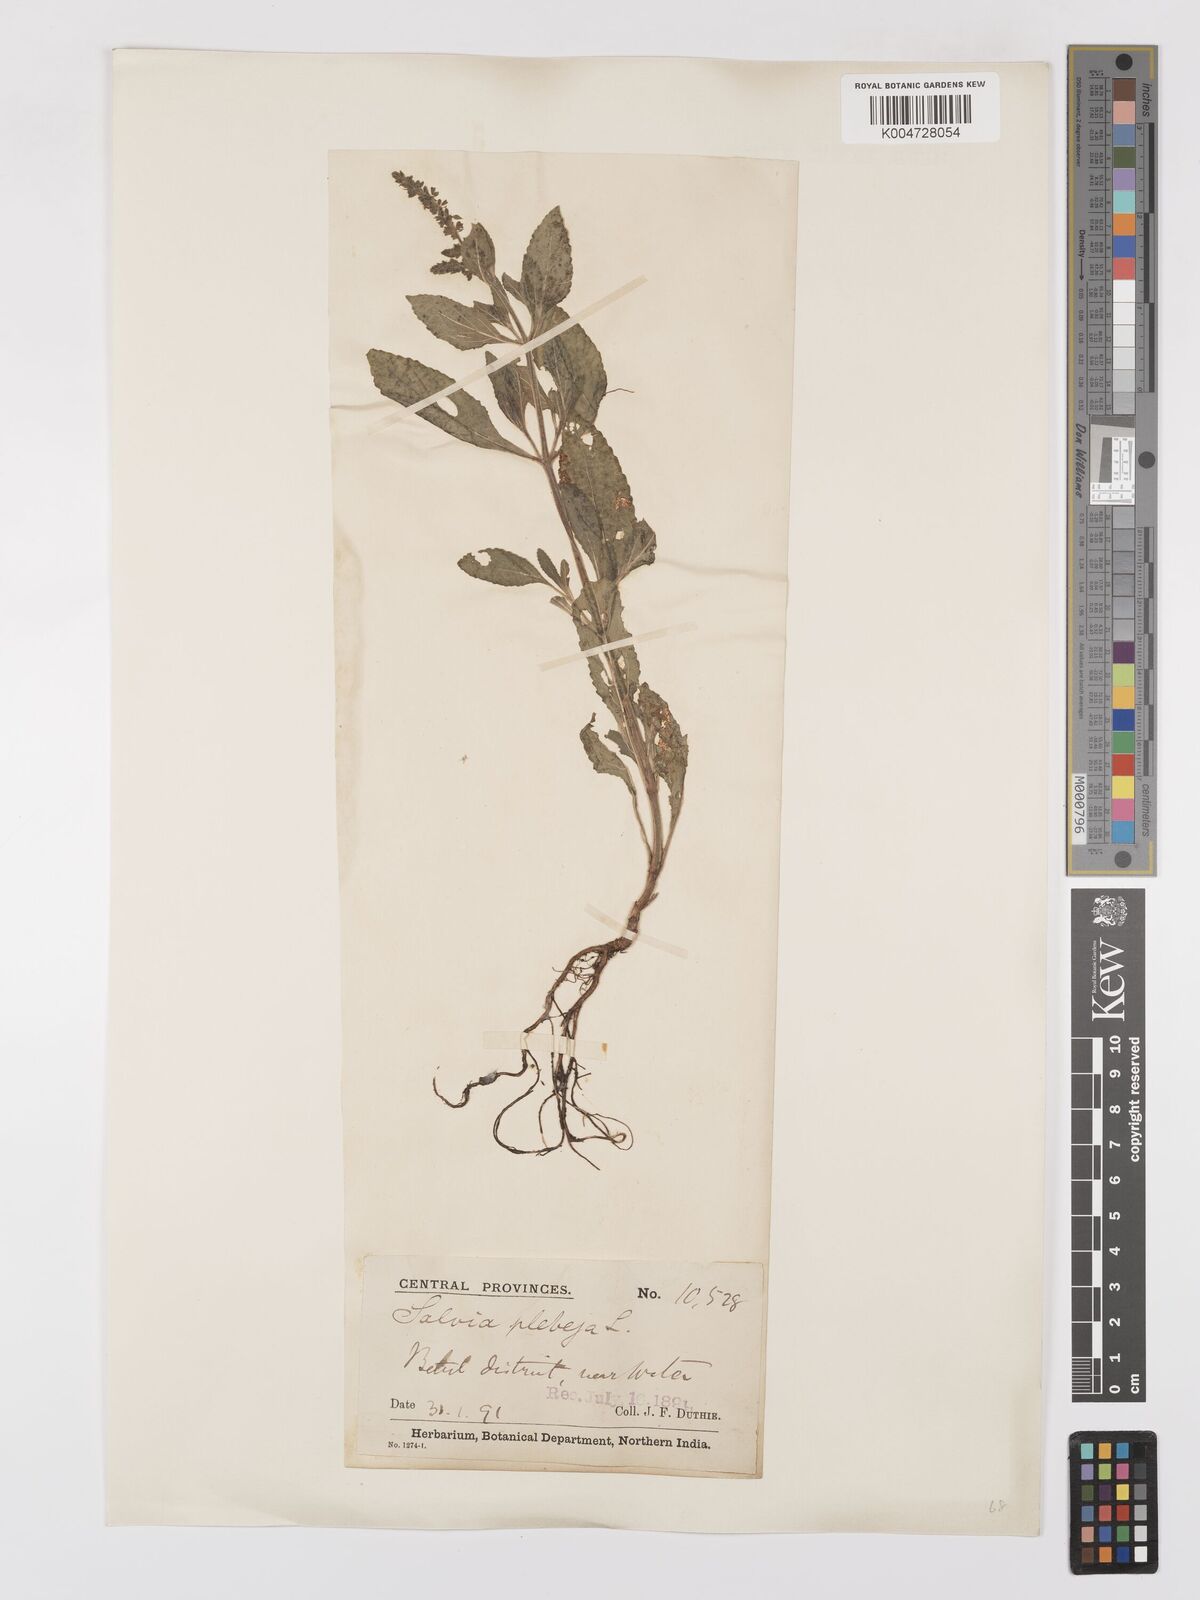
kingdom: Plantae
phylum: Tracheophyta
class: Magnoliopsida
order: Lamiales
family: Lamiaceae
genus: Salvia
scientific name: Salvia plebeia
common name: Australian sage
